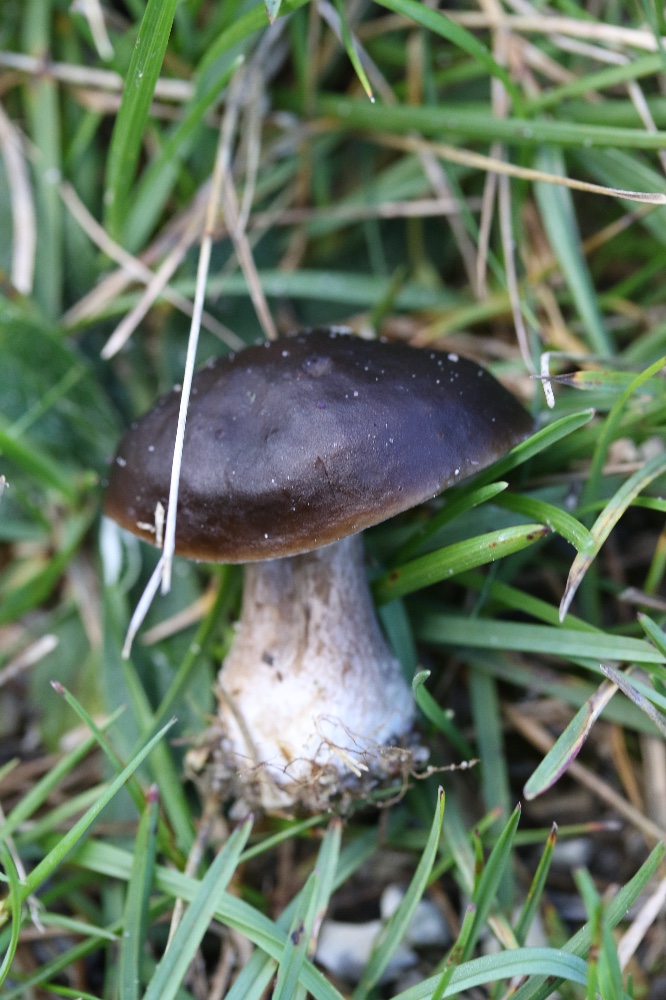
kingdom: Fungi
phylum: Basidiomycota
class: Agaricomycetes
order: Agaricales
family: Tricholomataceae
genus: Melanoleuca
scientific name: Melanoleuca
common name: munkehat
